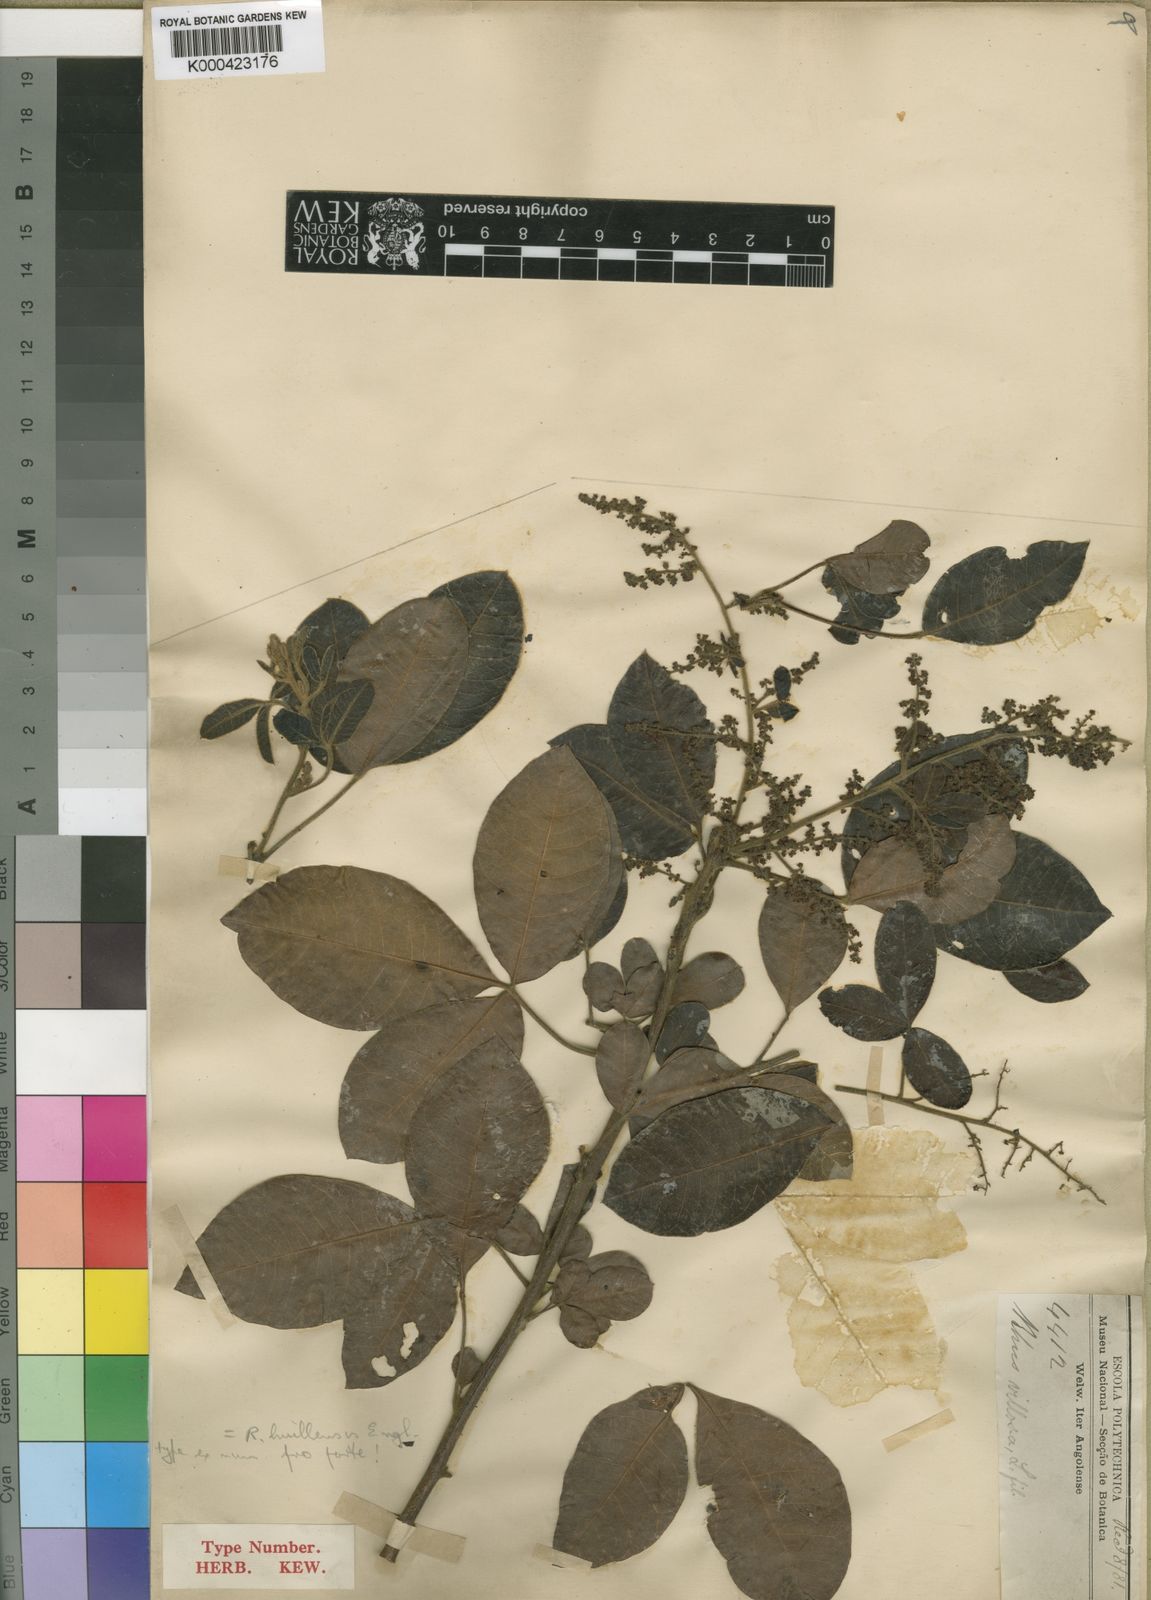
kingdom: Plantae
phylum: Tracheophyta
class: Magnoliopsida
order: Sapindales
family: Anacardiaceae
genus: Searsia
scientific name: Searsia longipes
